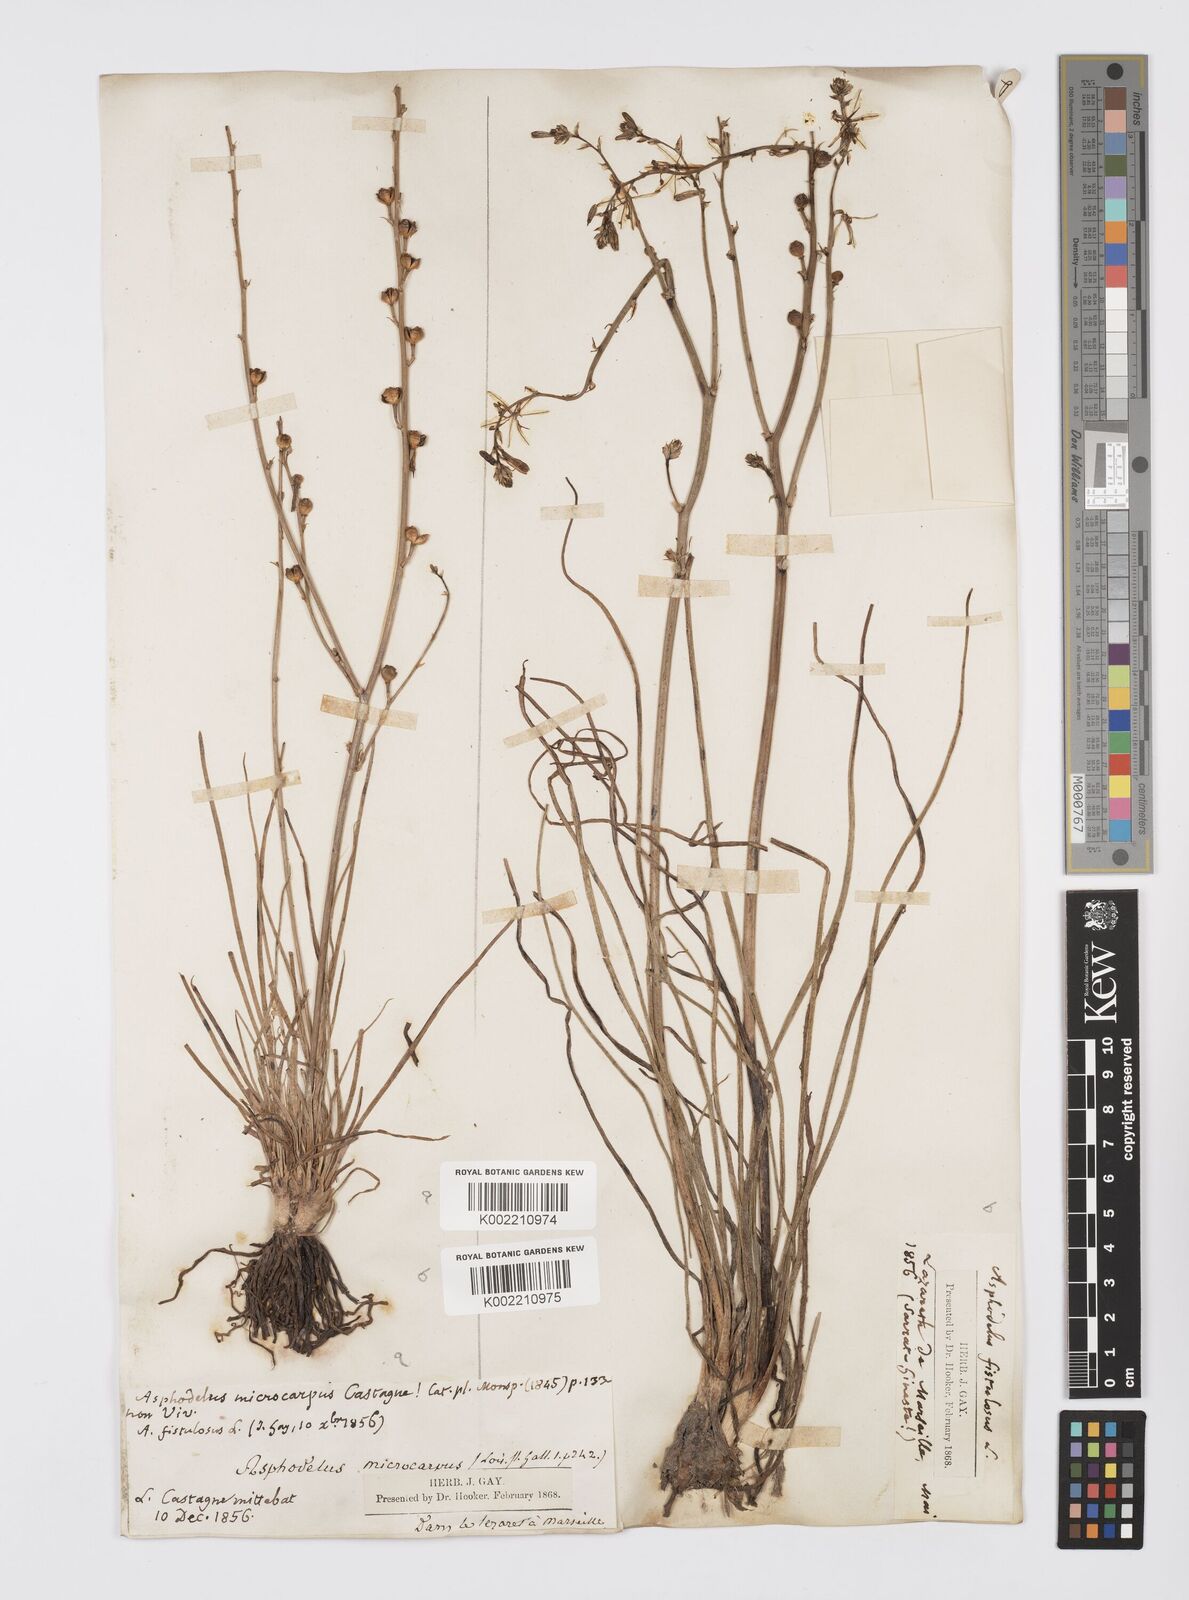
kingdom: Plantae
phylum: Tracheophyta
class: Liliopsida
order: Asparagales
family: Asphodelaceae
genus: Asphodelus
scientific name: Asphodelus fistulosus
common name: Onionweed
